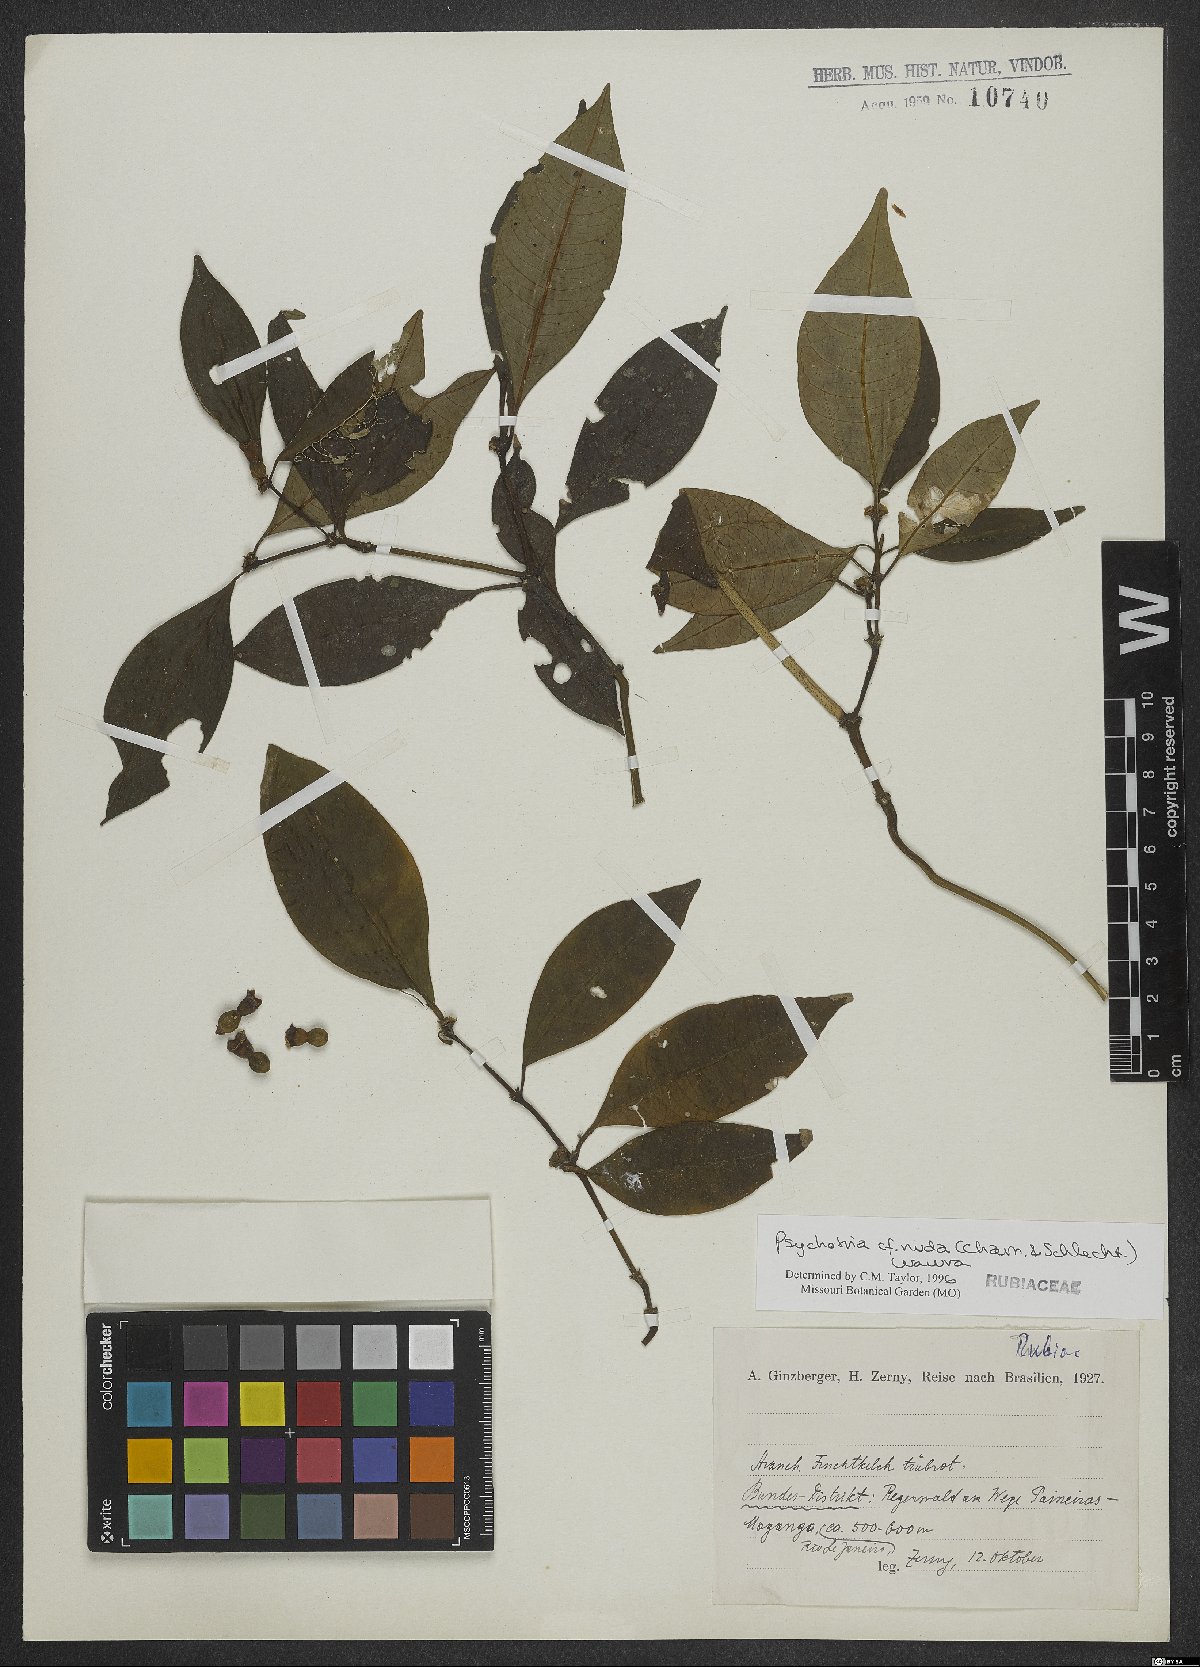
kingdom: Plantae
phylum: Tracheophyta
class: Magnoliopsida
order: Gentianales
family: Rubiaceae
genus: Psychotria
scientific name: Psychotria nuda
